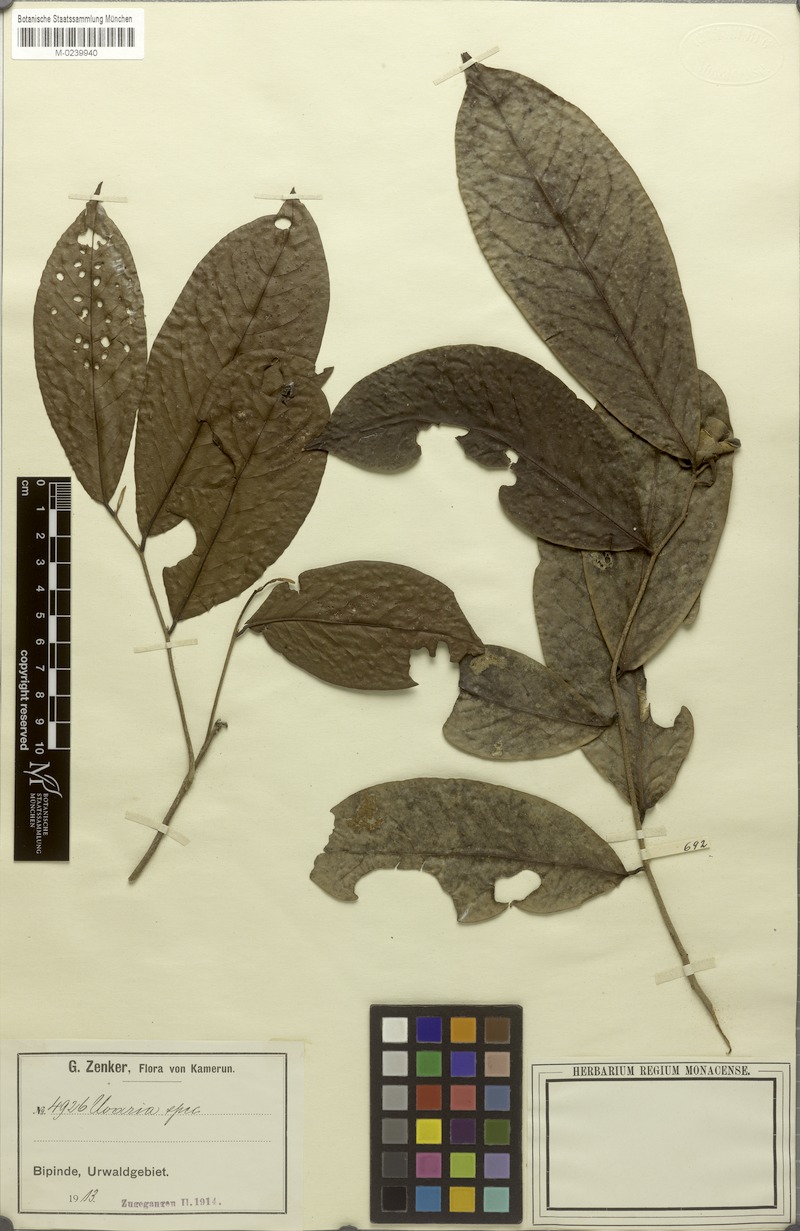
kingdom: Plantae
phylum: Tracheophyta
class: Magnoliopsida
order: Magnoliales
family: Annonaceae
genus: Uvaria
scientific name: Uvaria buchholzii
